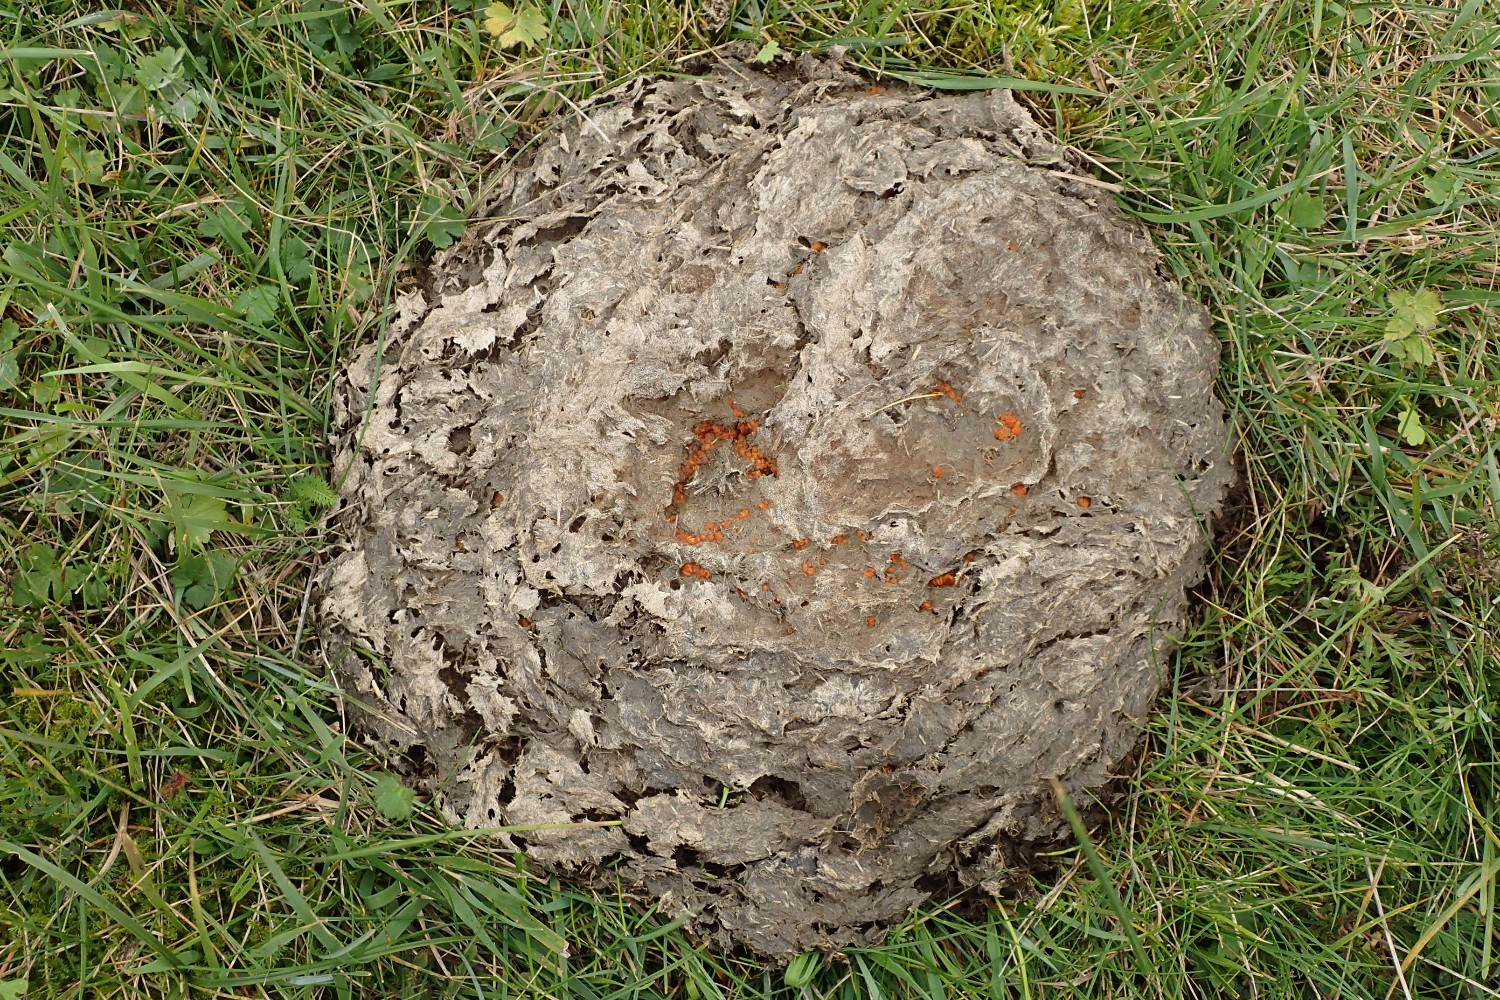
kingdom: Fungi
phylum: Ascomycota
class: Pezizomycetes
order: Pezizales
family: Pyronemataceae
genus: Cheilymenia
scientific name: Cheilymenia granulata
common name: møgbæger
